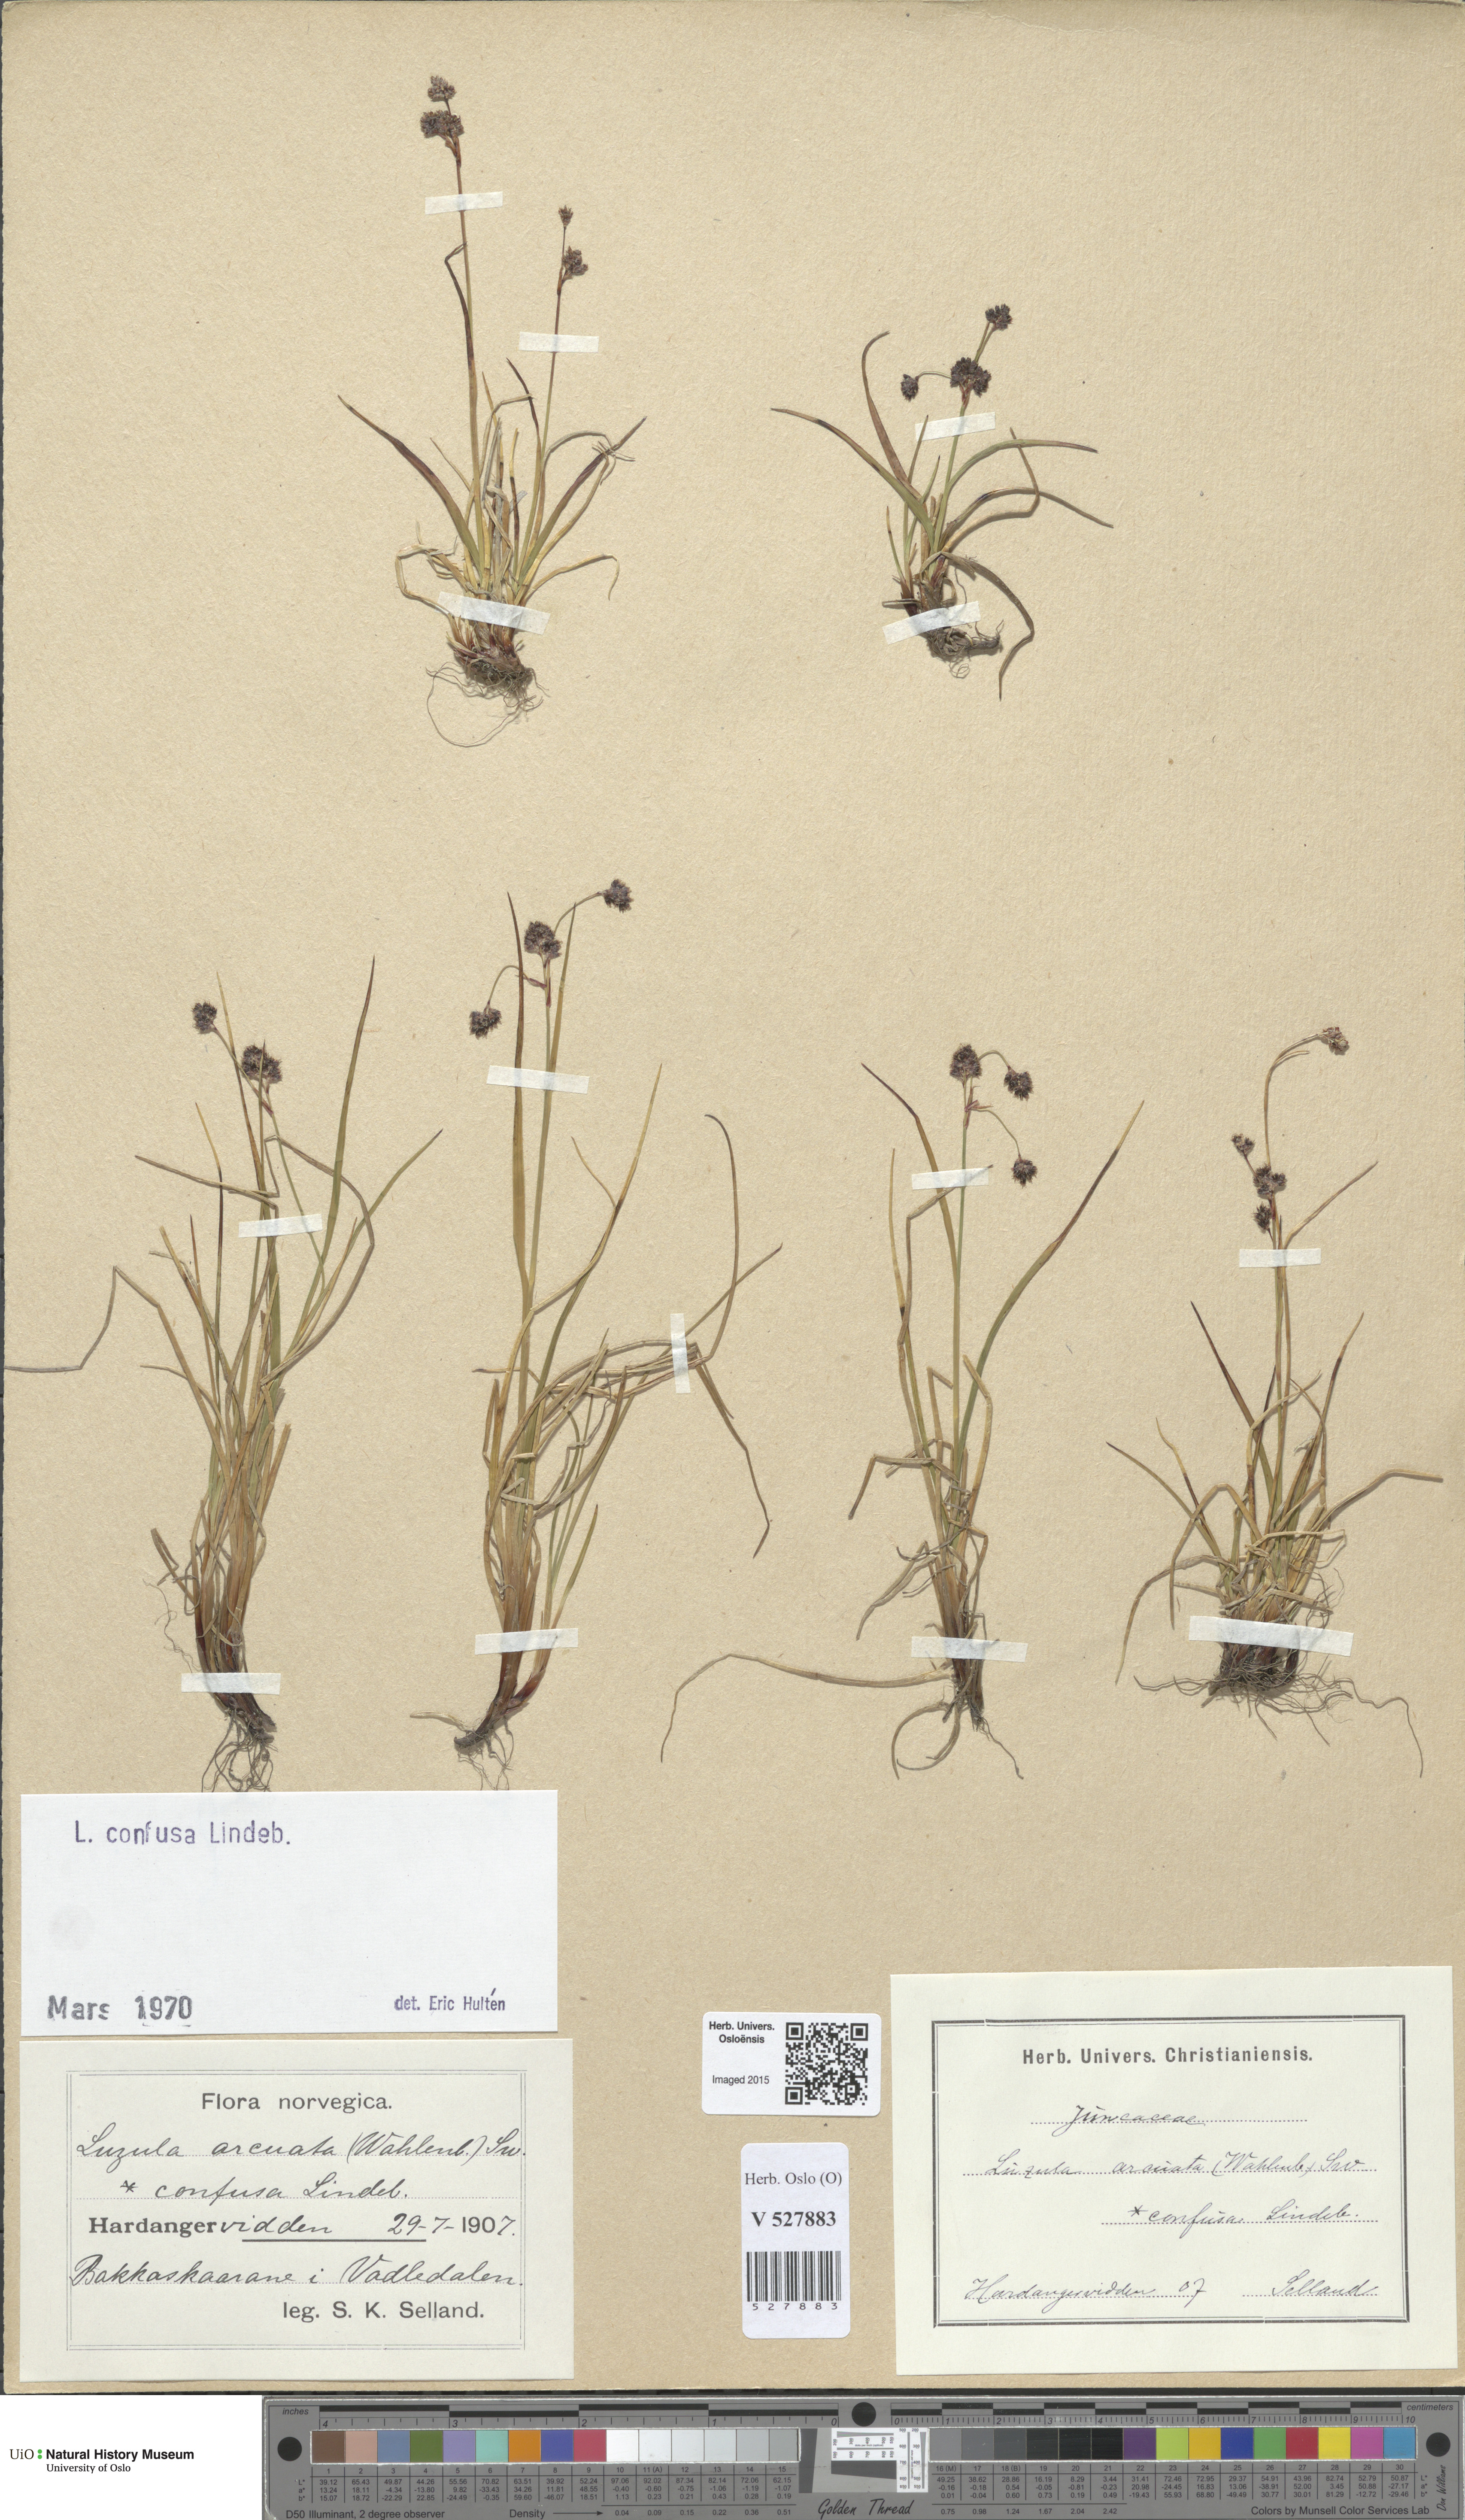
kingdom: Plantae
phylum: Tracheophyta
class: Liliopsida
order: Poales
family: Juncaceae
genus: Luzula
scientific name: Luzula confusa
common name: Northern wood rush
